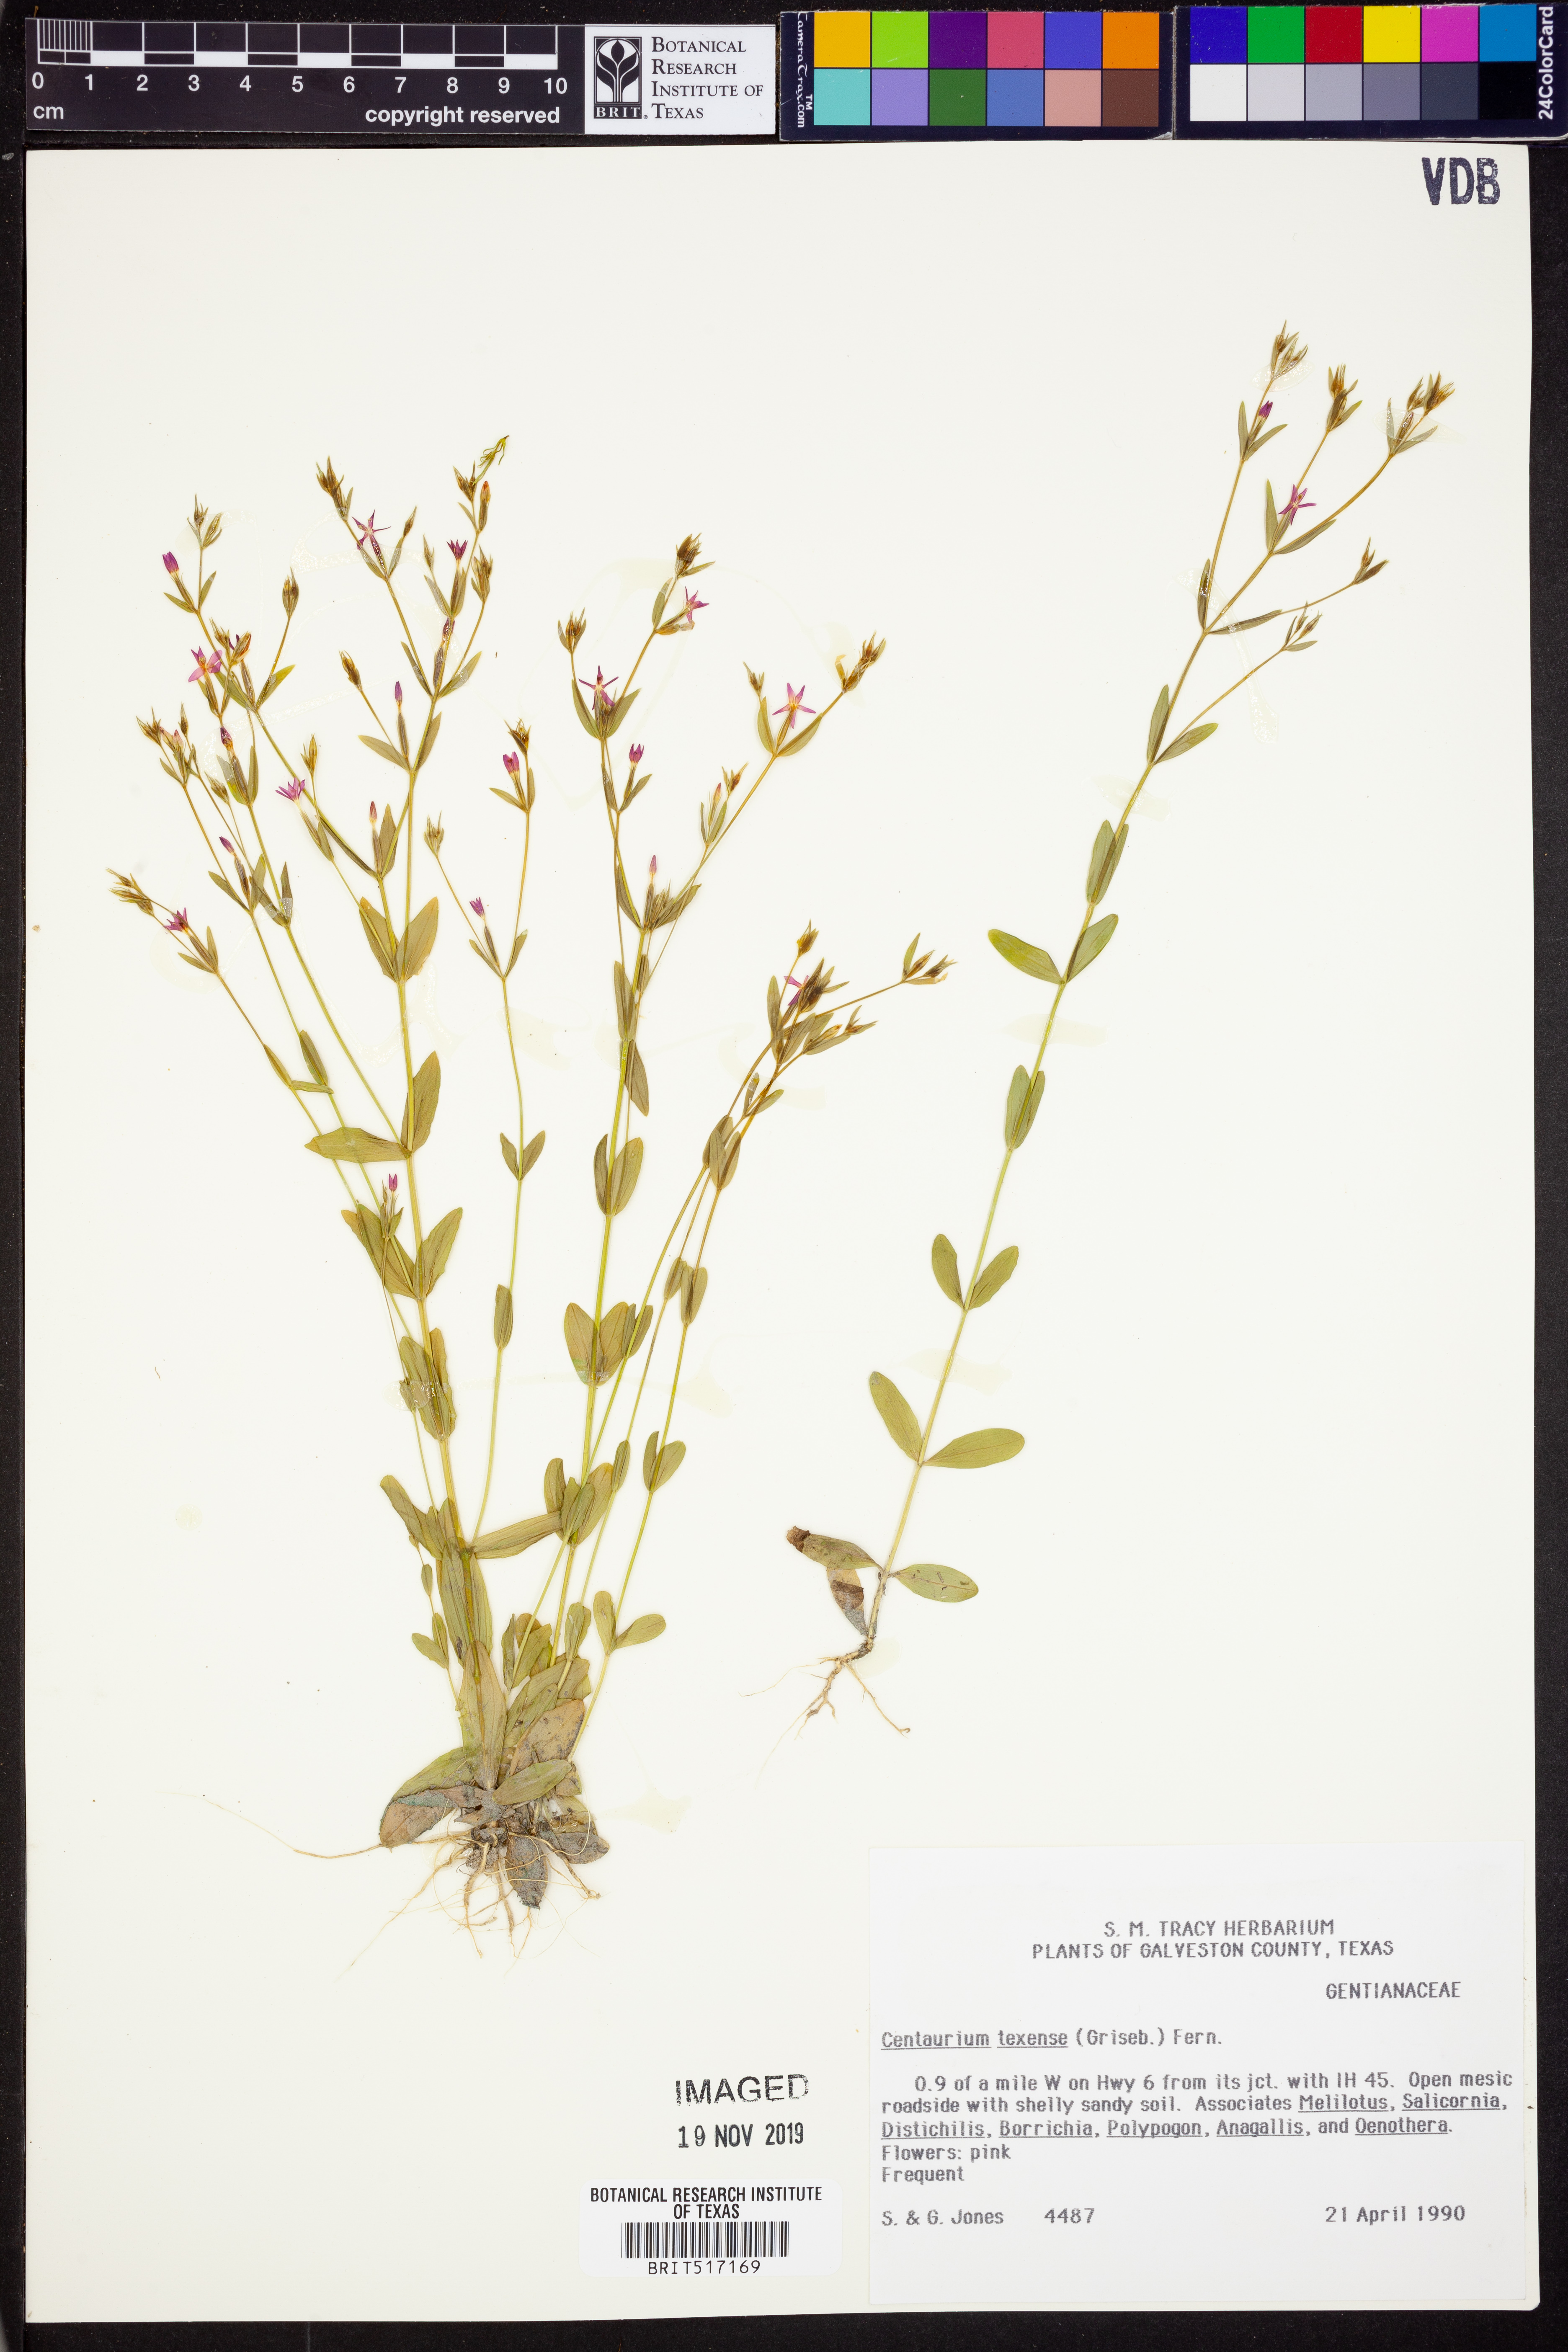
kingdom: Plantae
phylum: Tracheophyta
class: Magnoliopsida
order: Gentianales
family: Gentianaceae
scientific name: Gentianaceae
